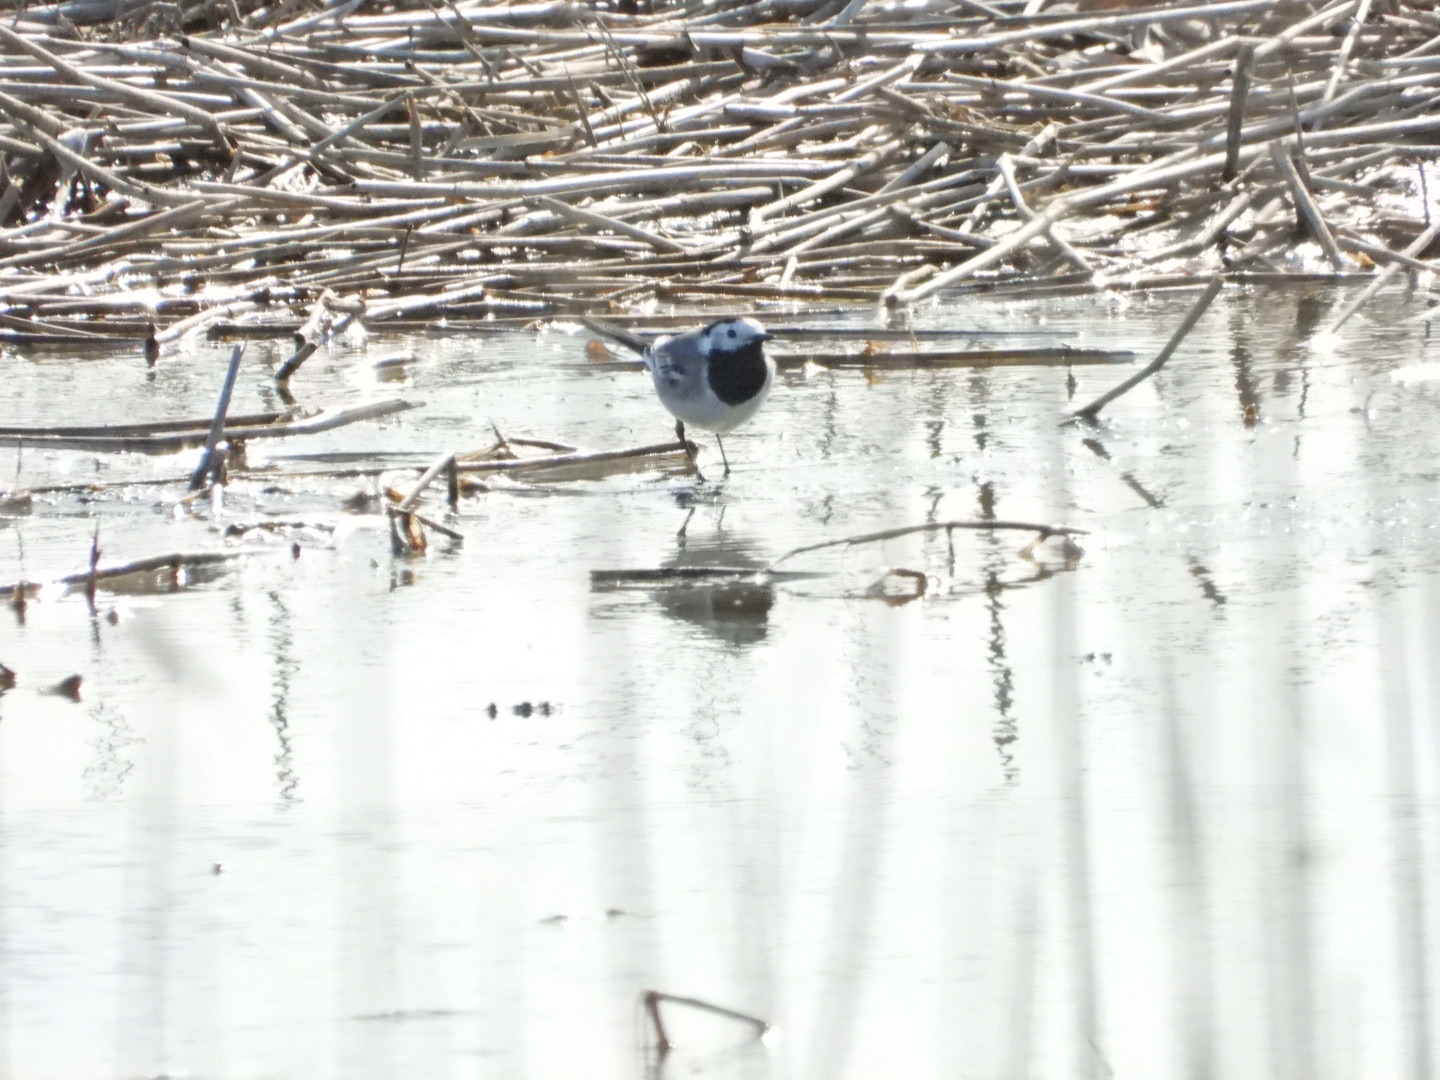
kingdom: Animalia
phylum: Chordata
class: Aves
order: Passeriformes
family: Motacillidae
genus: Motacilla
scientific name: Motacilla alba
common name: Hvid vipstjert
